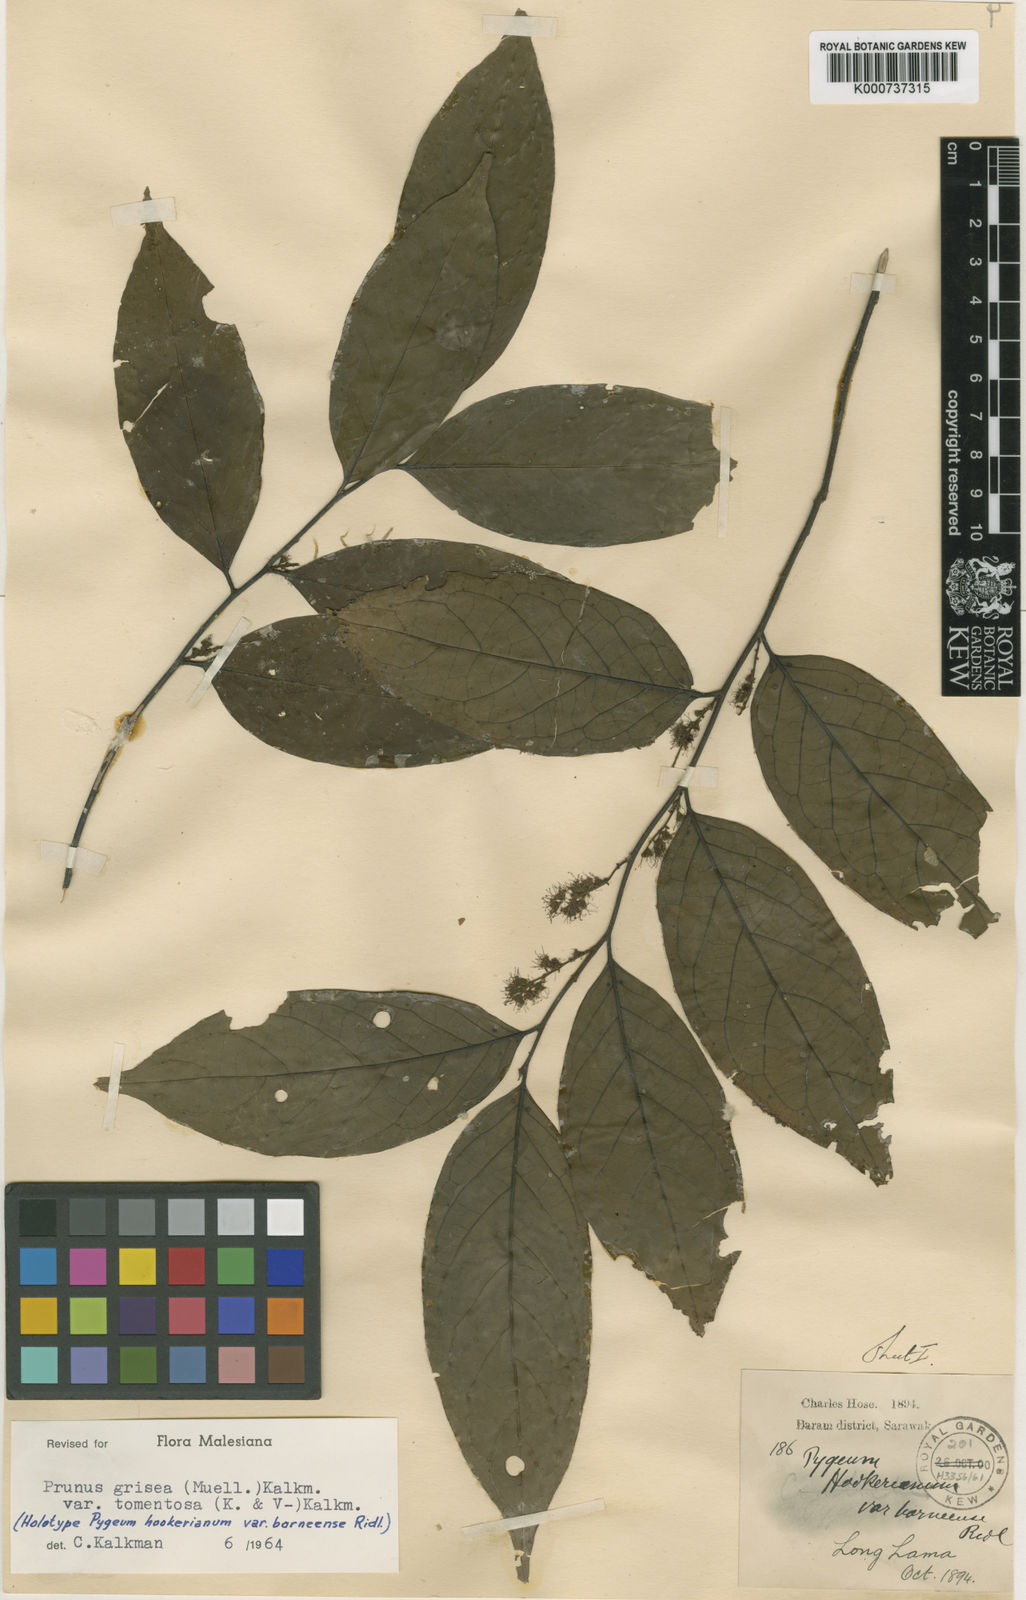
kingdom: Plantae
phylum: Tracheophyta
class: Magnoliopsida
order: Rosales
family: Rosaceae
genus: Prunus
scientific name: Prunus
